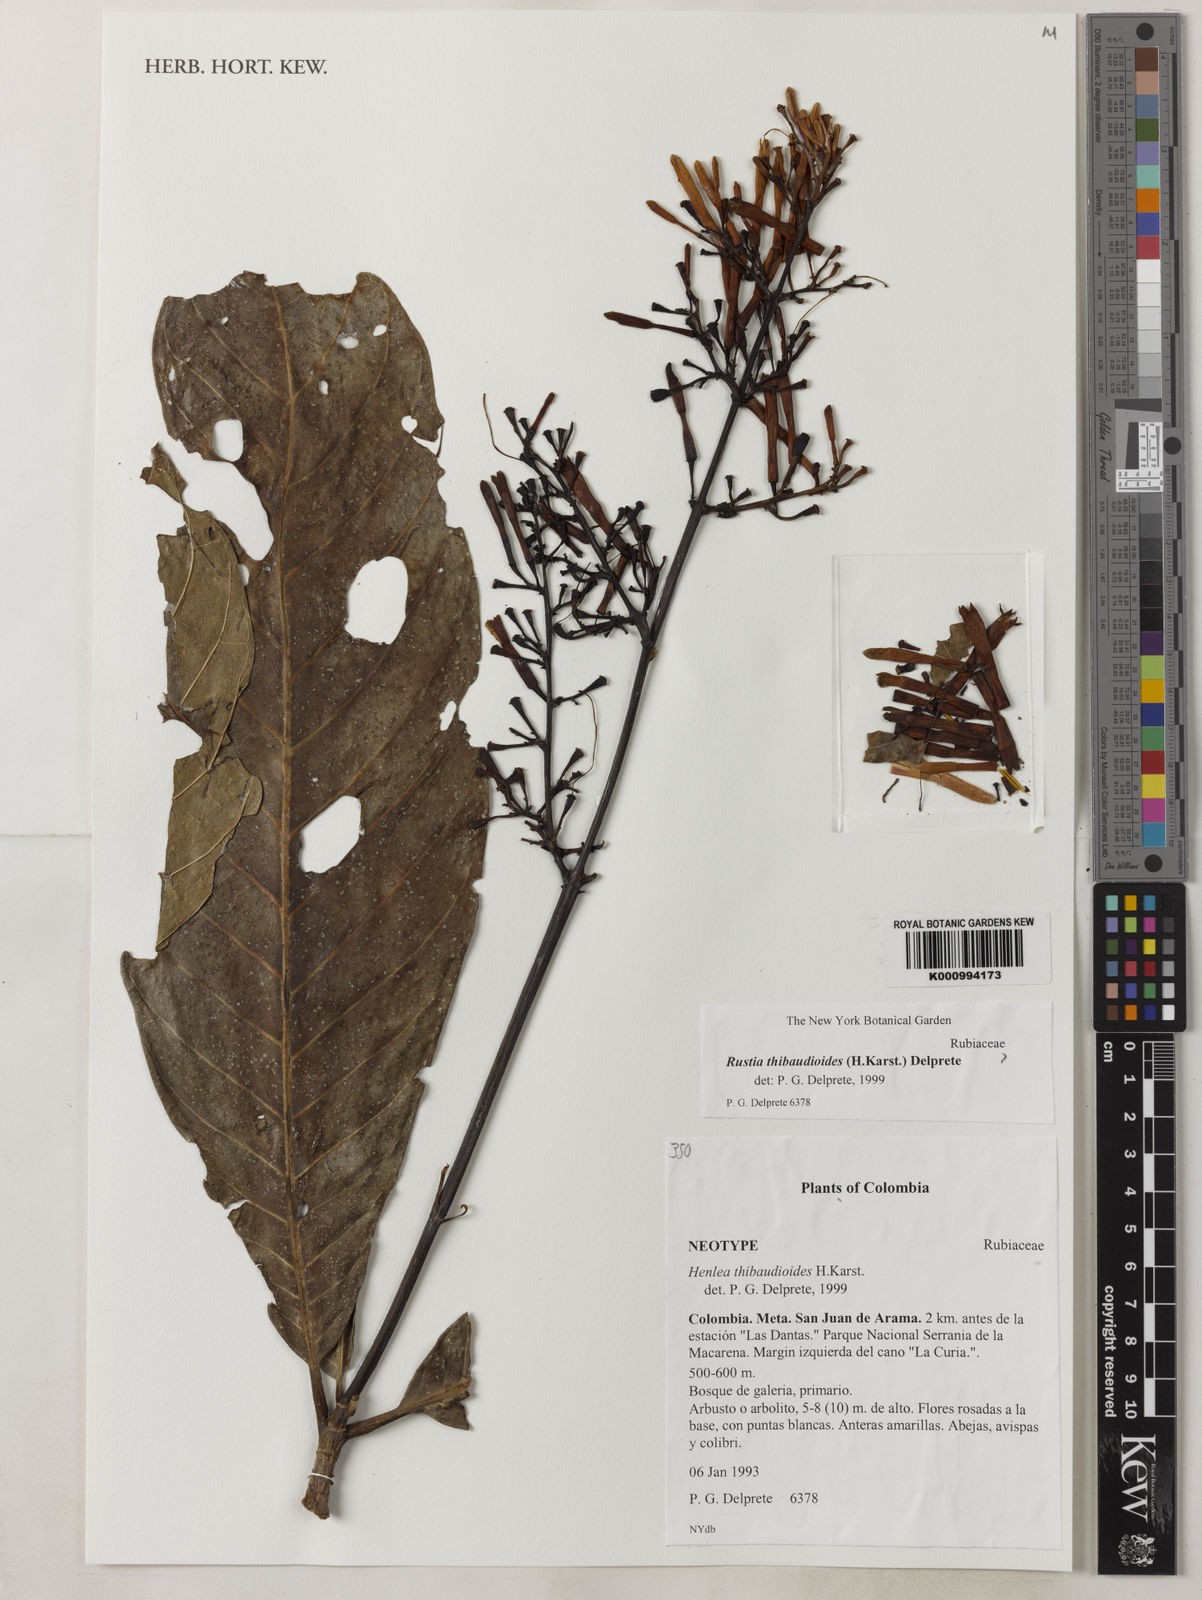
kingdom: Plantae
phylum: Tracheophyta
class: Magnoliopsida
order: Gentianales
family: Rubiaceae
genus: Rustia
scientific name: Rustia thibaudioides
